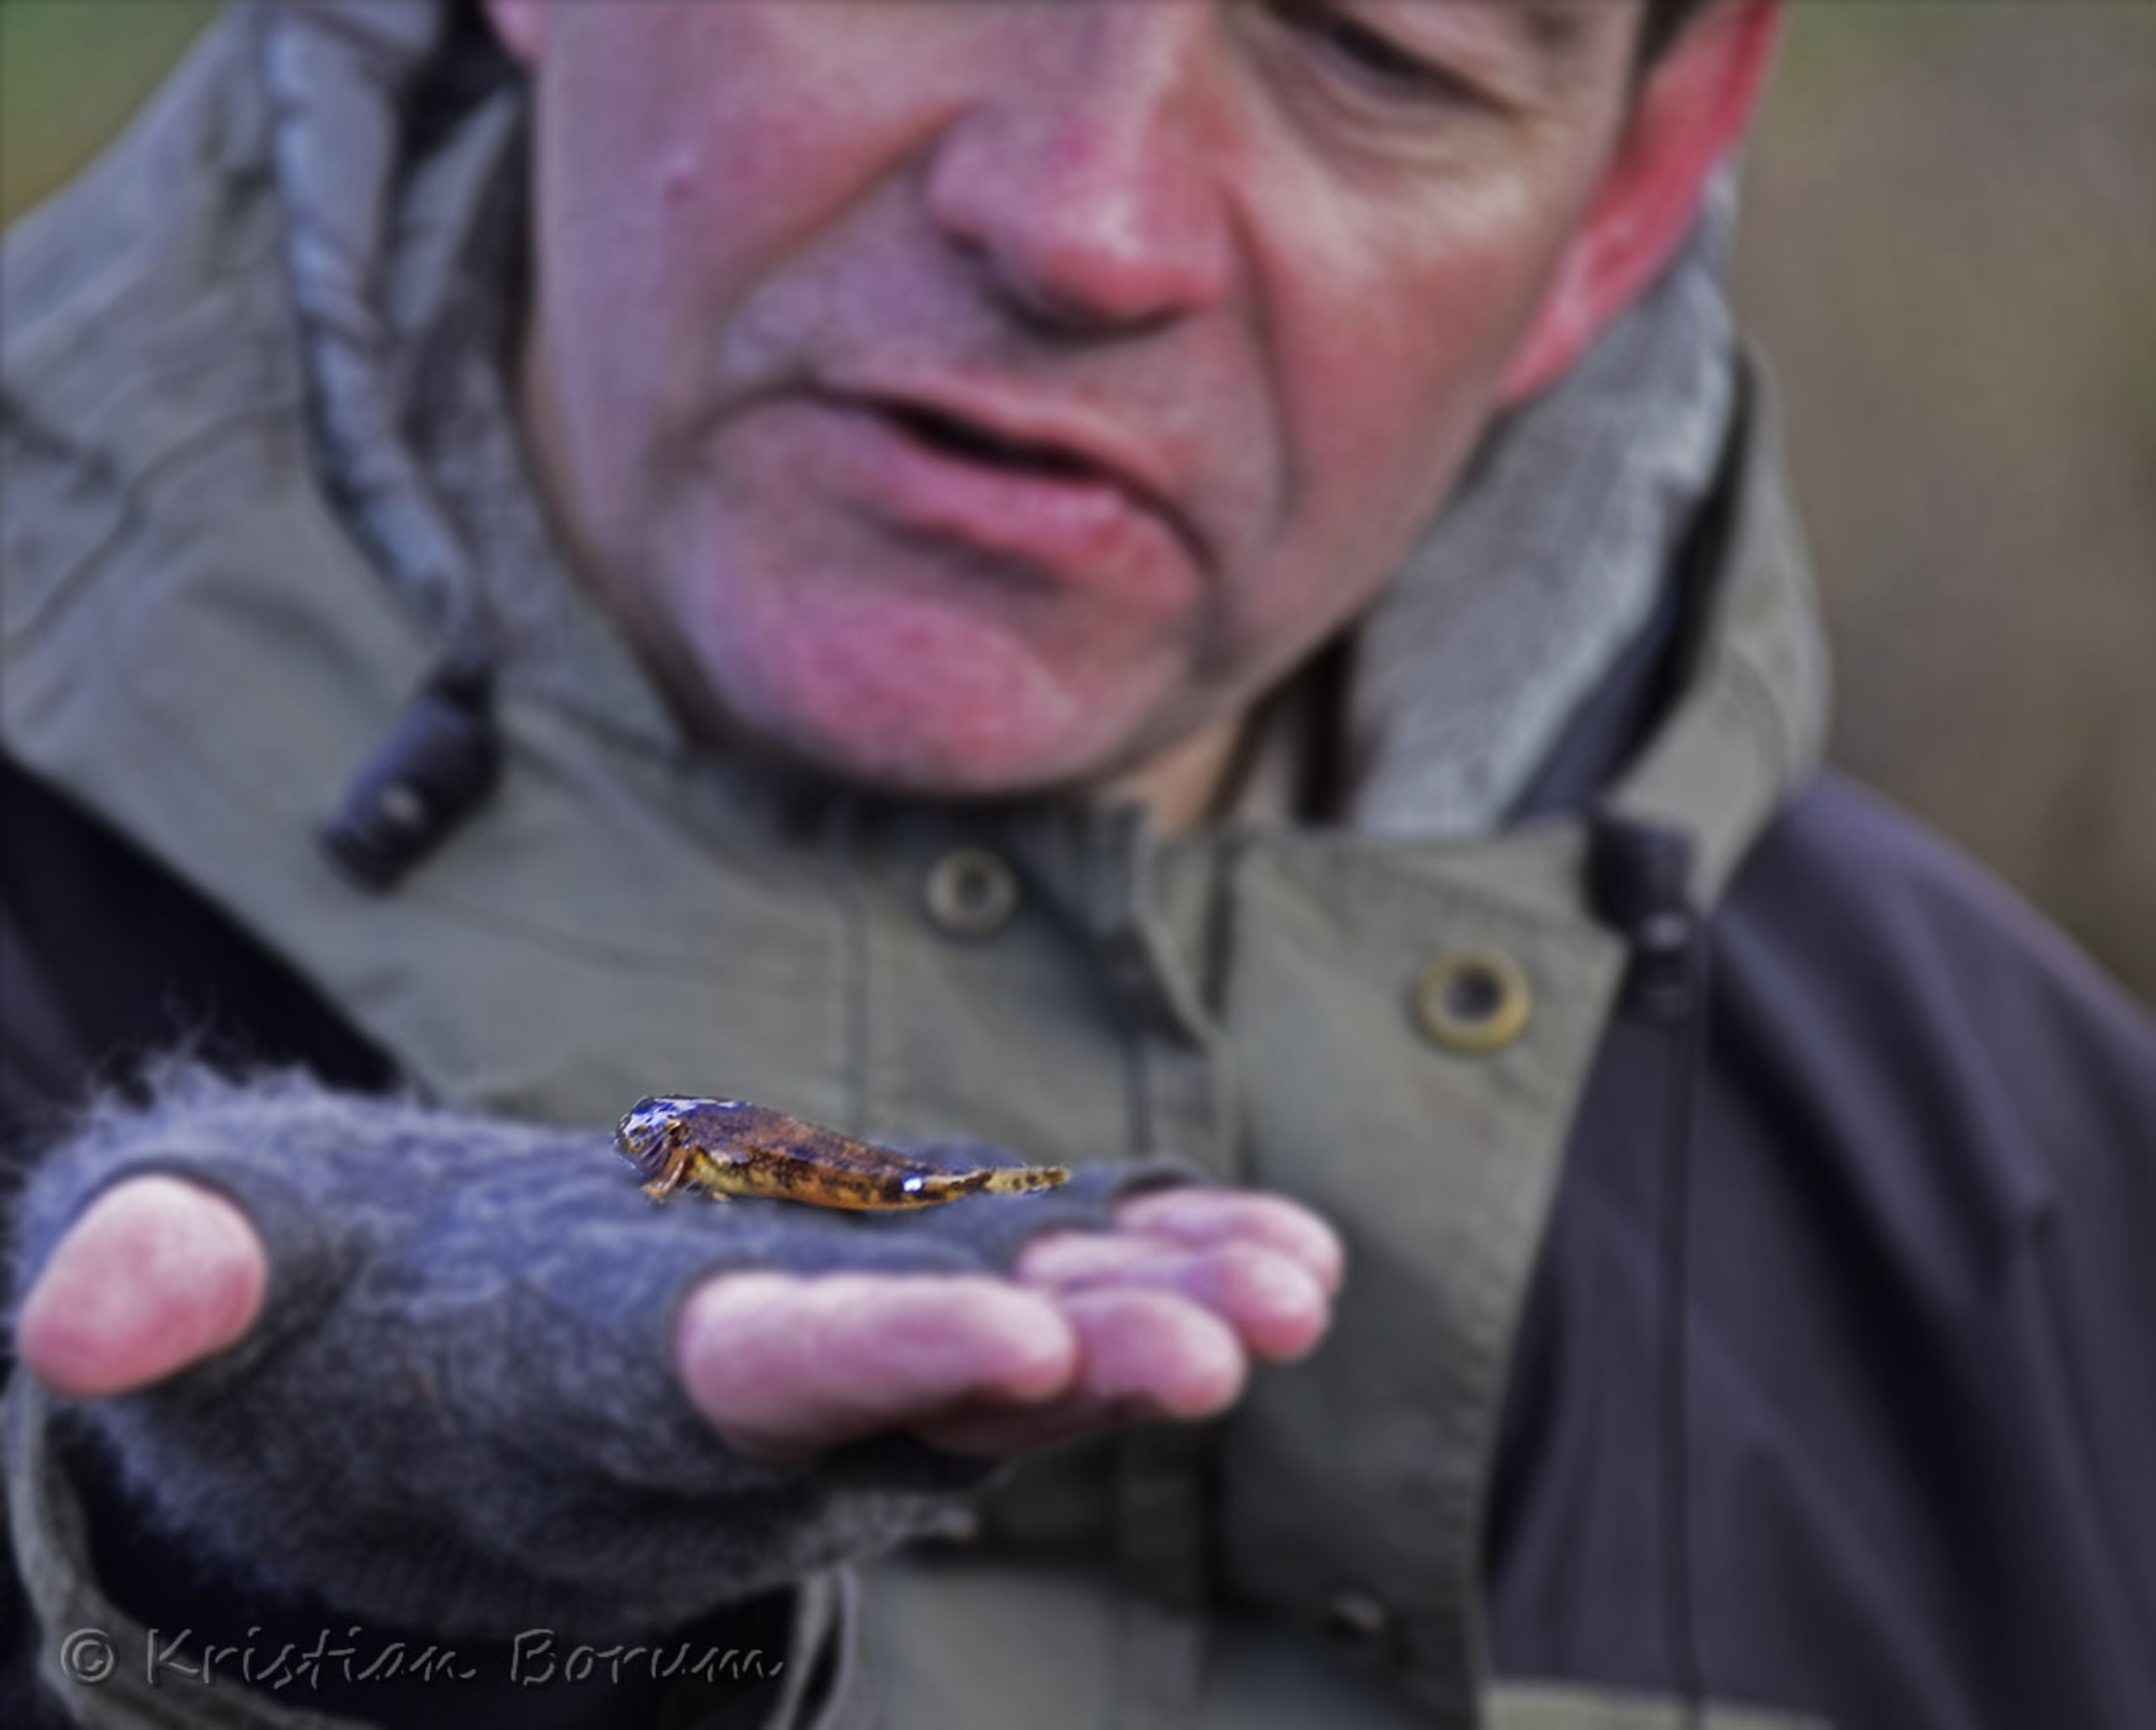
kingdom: Animalia
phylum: Chordata
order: Scorpaeniformes
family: Cottidae
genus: Cottus
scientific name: Cottus poecilopus
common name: Finnestribet ferskvandsulk
